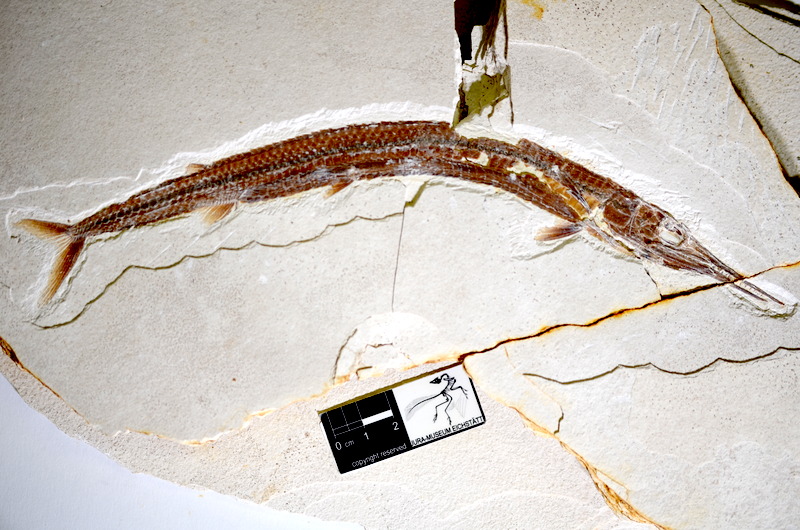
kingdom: Animalia
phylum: Chordata
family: Aspidorhynchidae
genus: Belonostomus
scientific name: Belonostomus kochii
